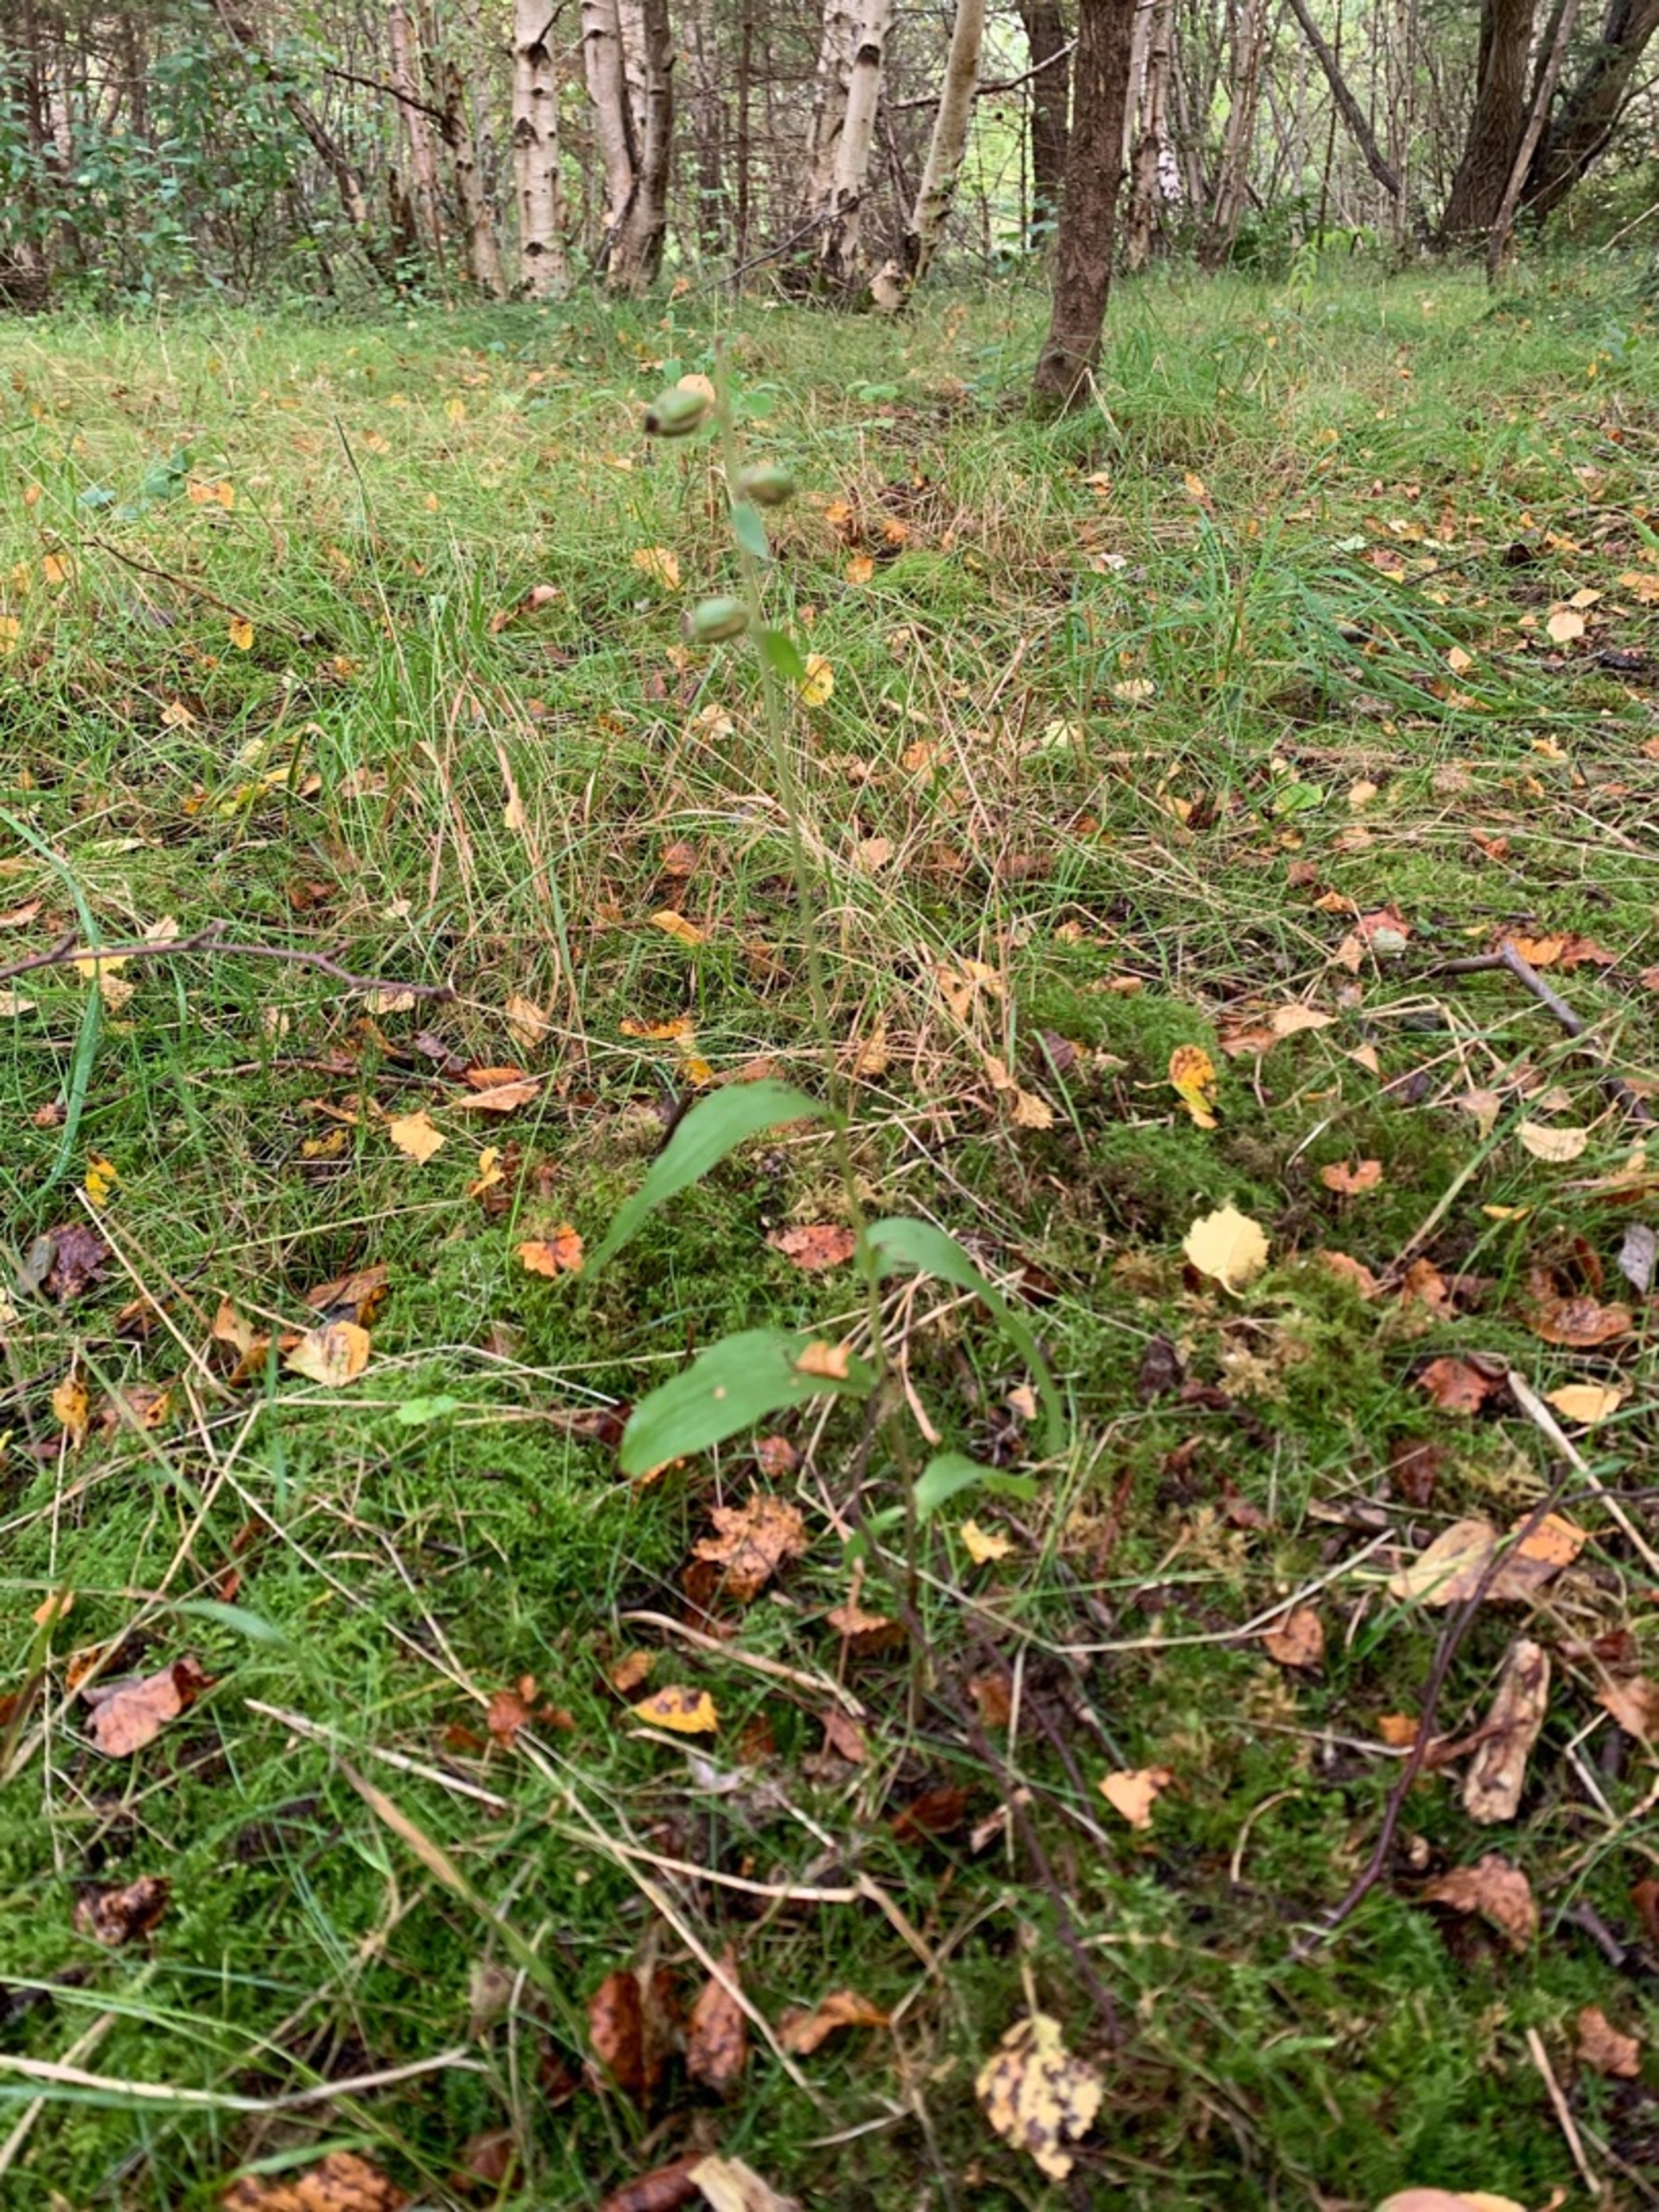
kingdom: Plantae
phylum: Tracheophyta
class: Liliopsida
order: Asparagales
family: Orchidaceae
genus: Epipactis
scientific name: Epipactis helleborine
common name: Skov-hullæbe
